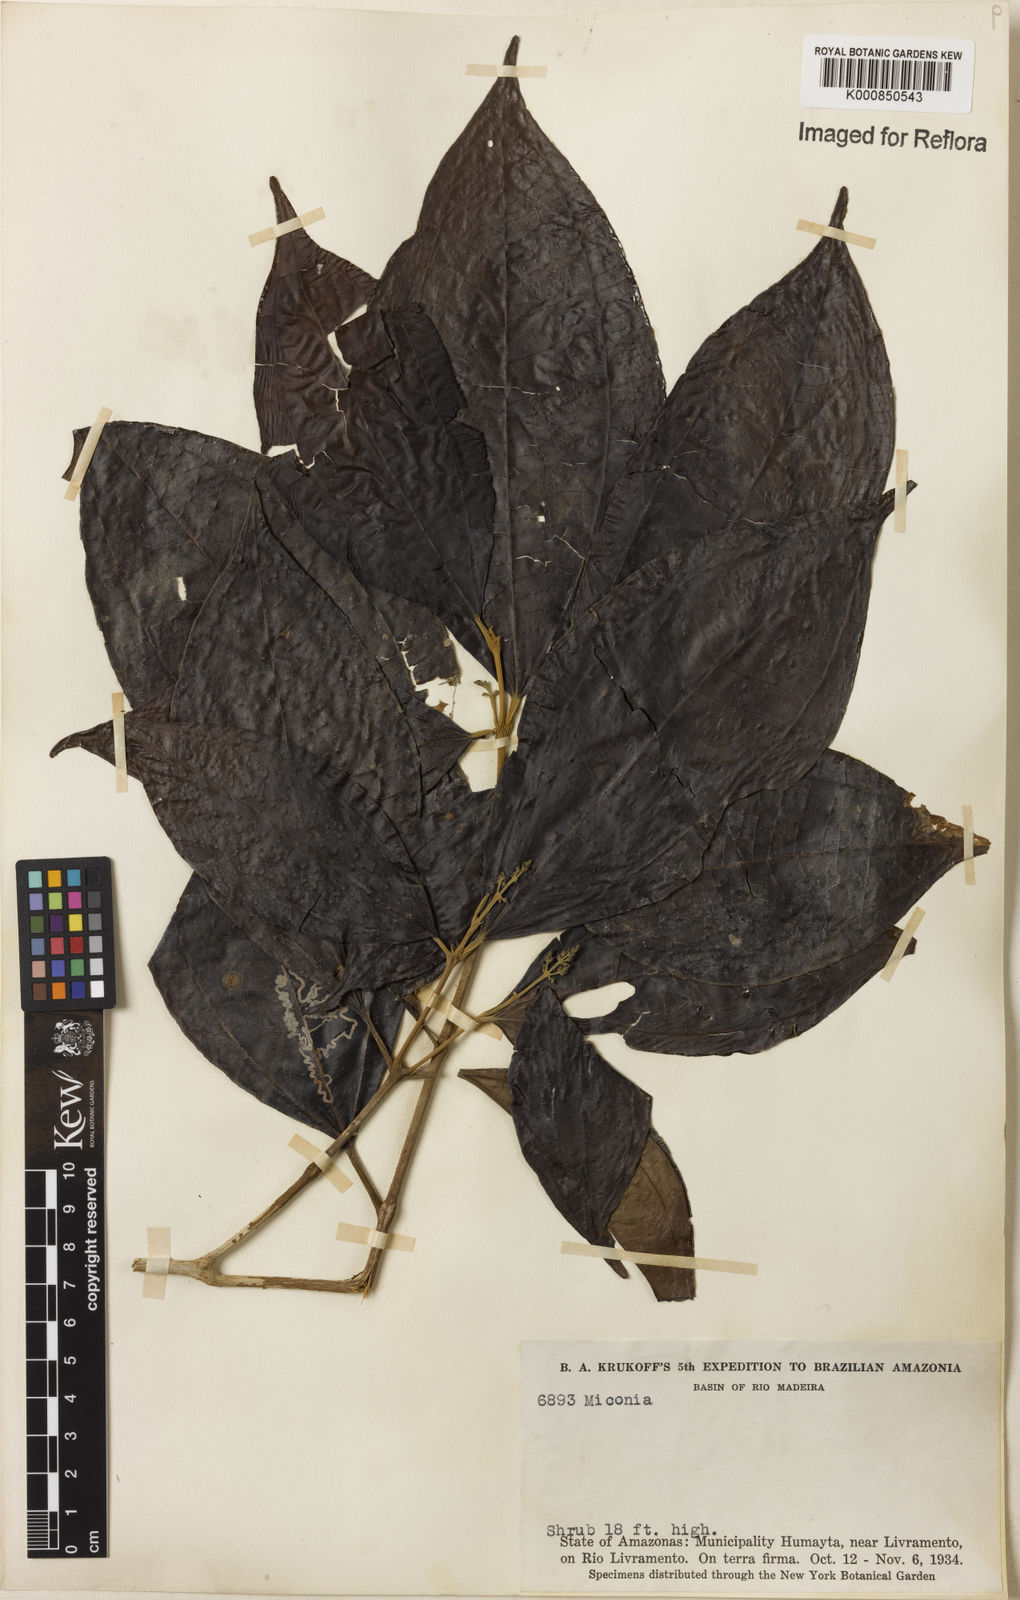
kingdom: Plantae
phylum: Tracheophyta
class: Magnoliopsida
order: Myrtales
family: Melastomataceae
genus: Miconia
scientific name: Miconia
